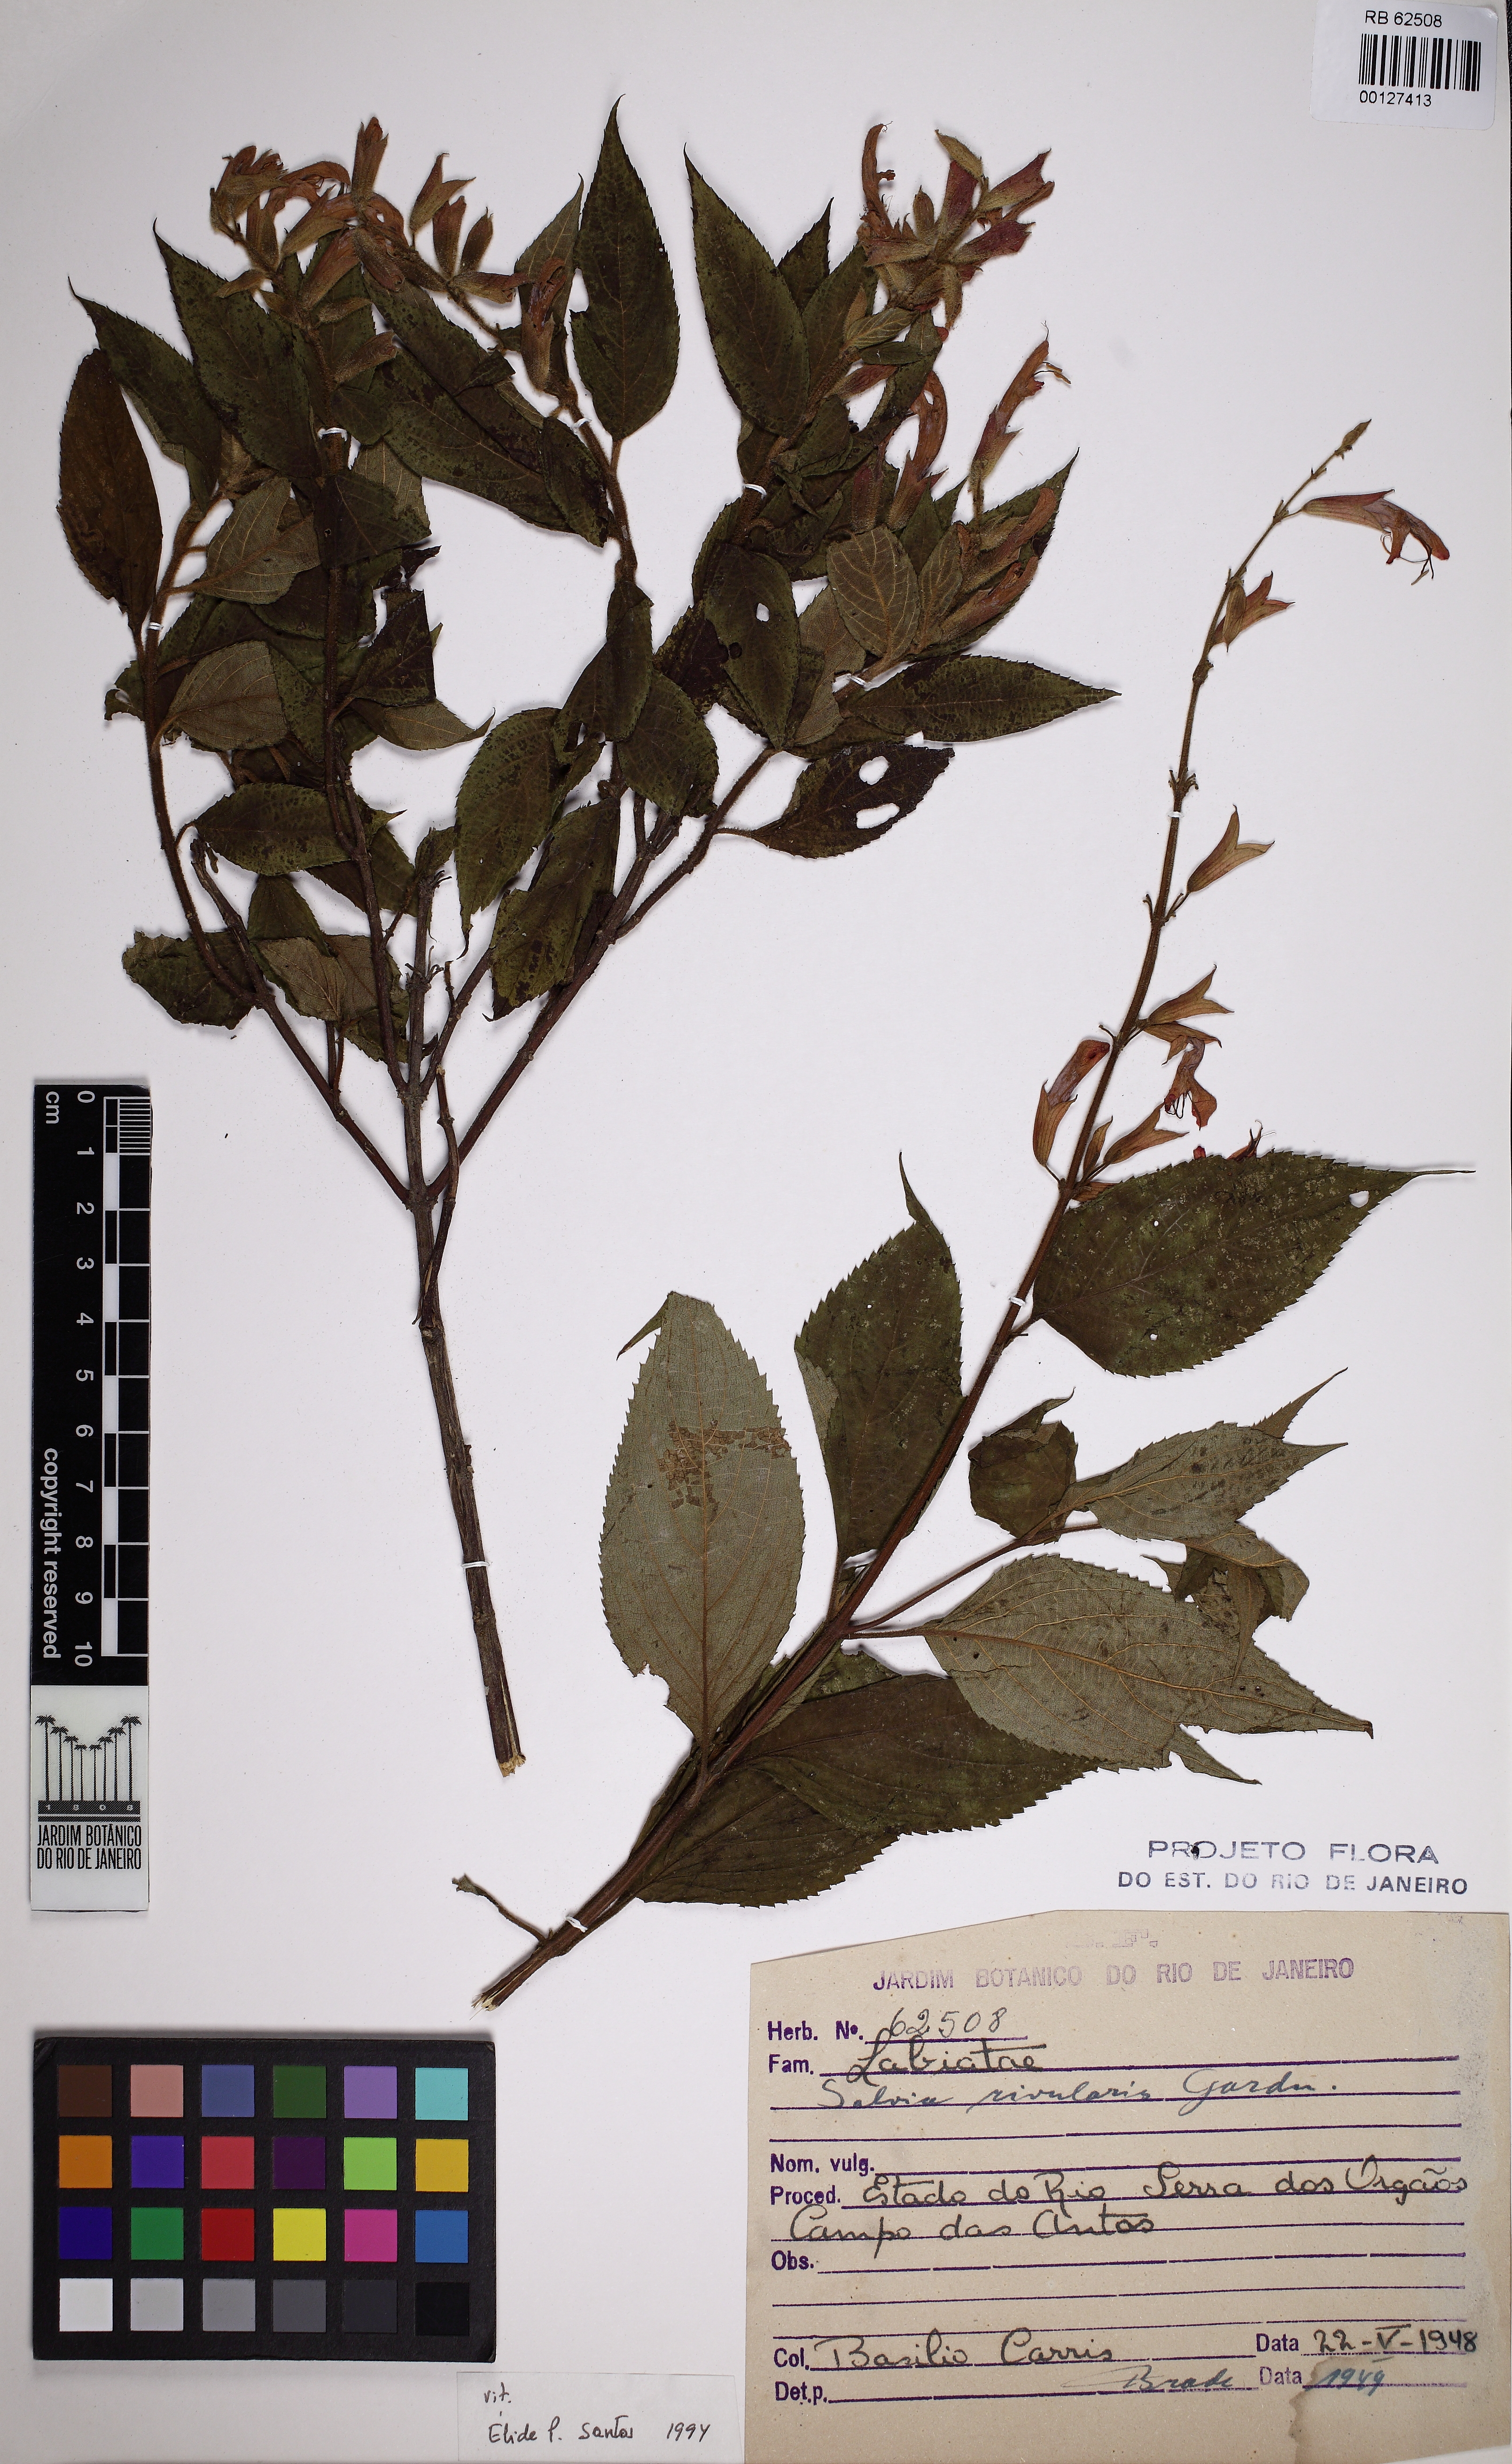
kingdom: Plantae
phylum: Tracheophyta
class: Magnoliopsida
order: Lamiales
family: Lamiaceae
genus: Salvia
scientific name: Salvia rivularis
